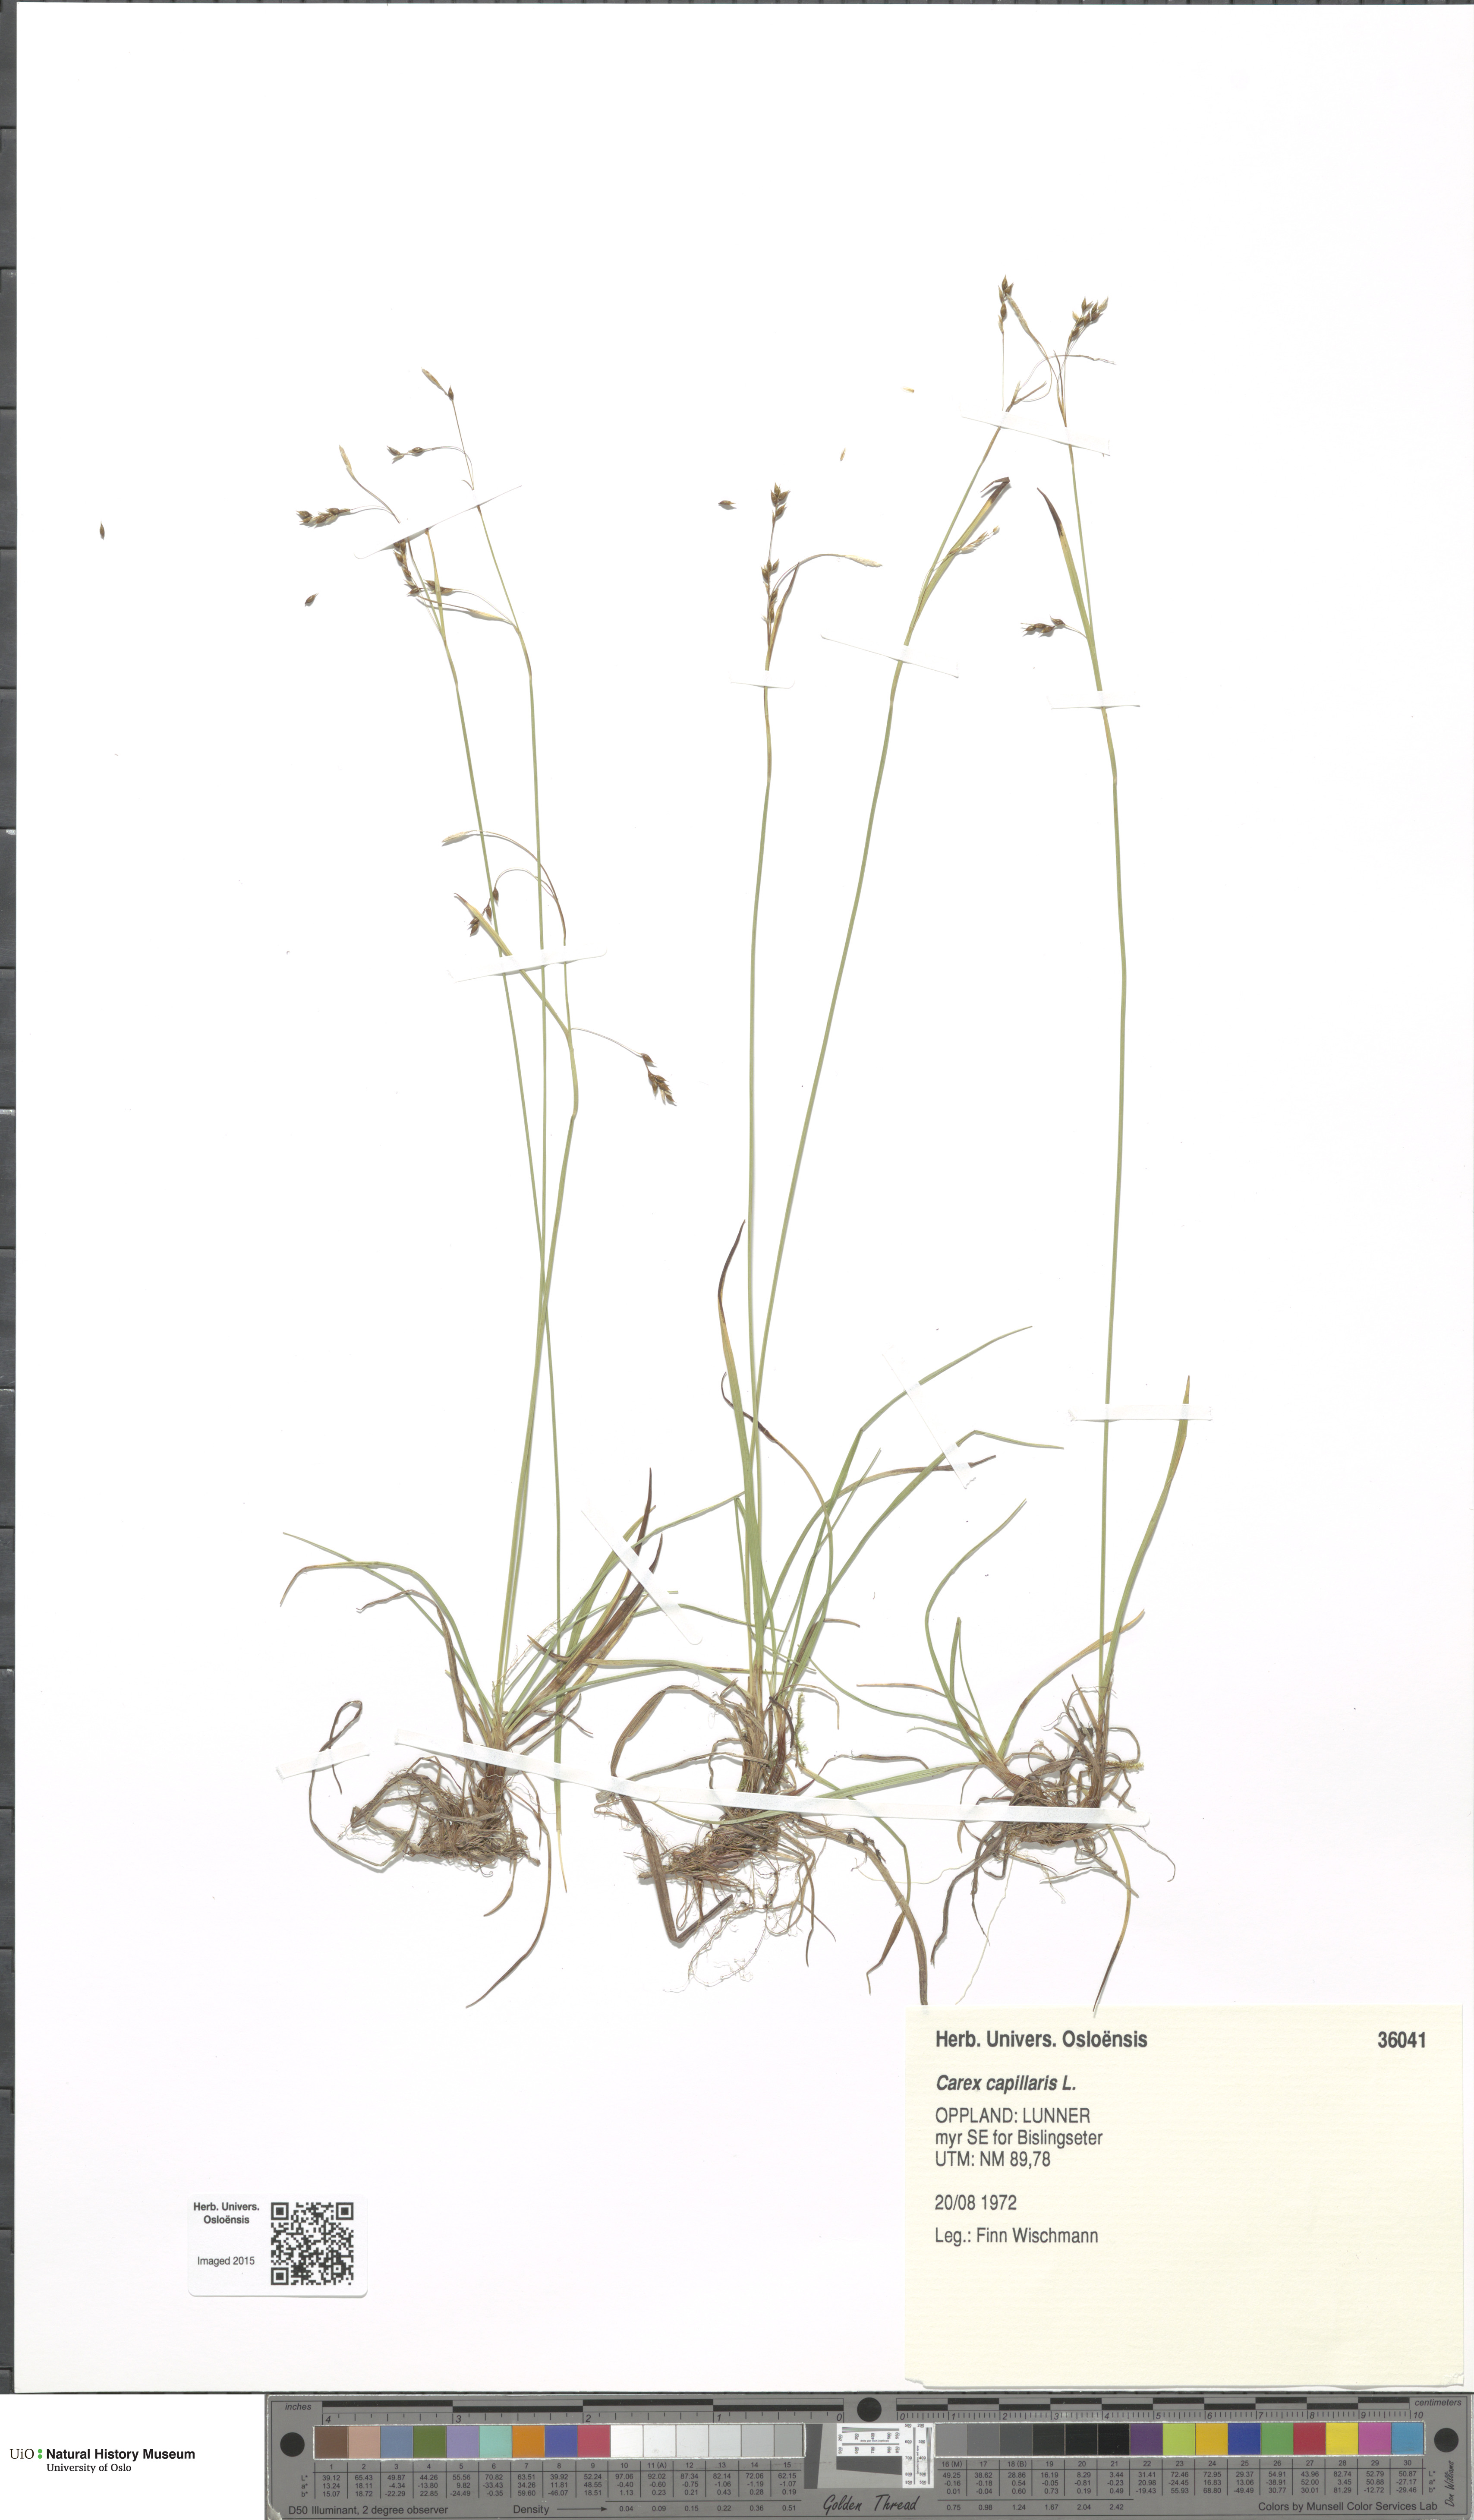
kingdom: Plantae
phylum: Tracheophyta
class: Liliopsida
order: Poales
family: Cyperaceae
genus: Carex
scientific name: Carex capillaris
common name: Hair sedge
